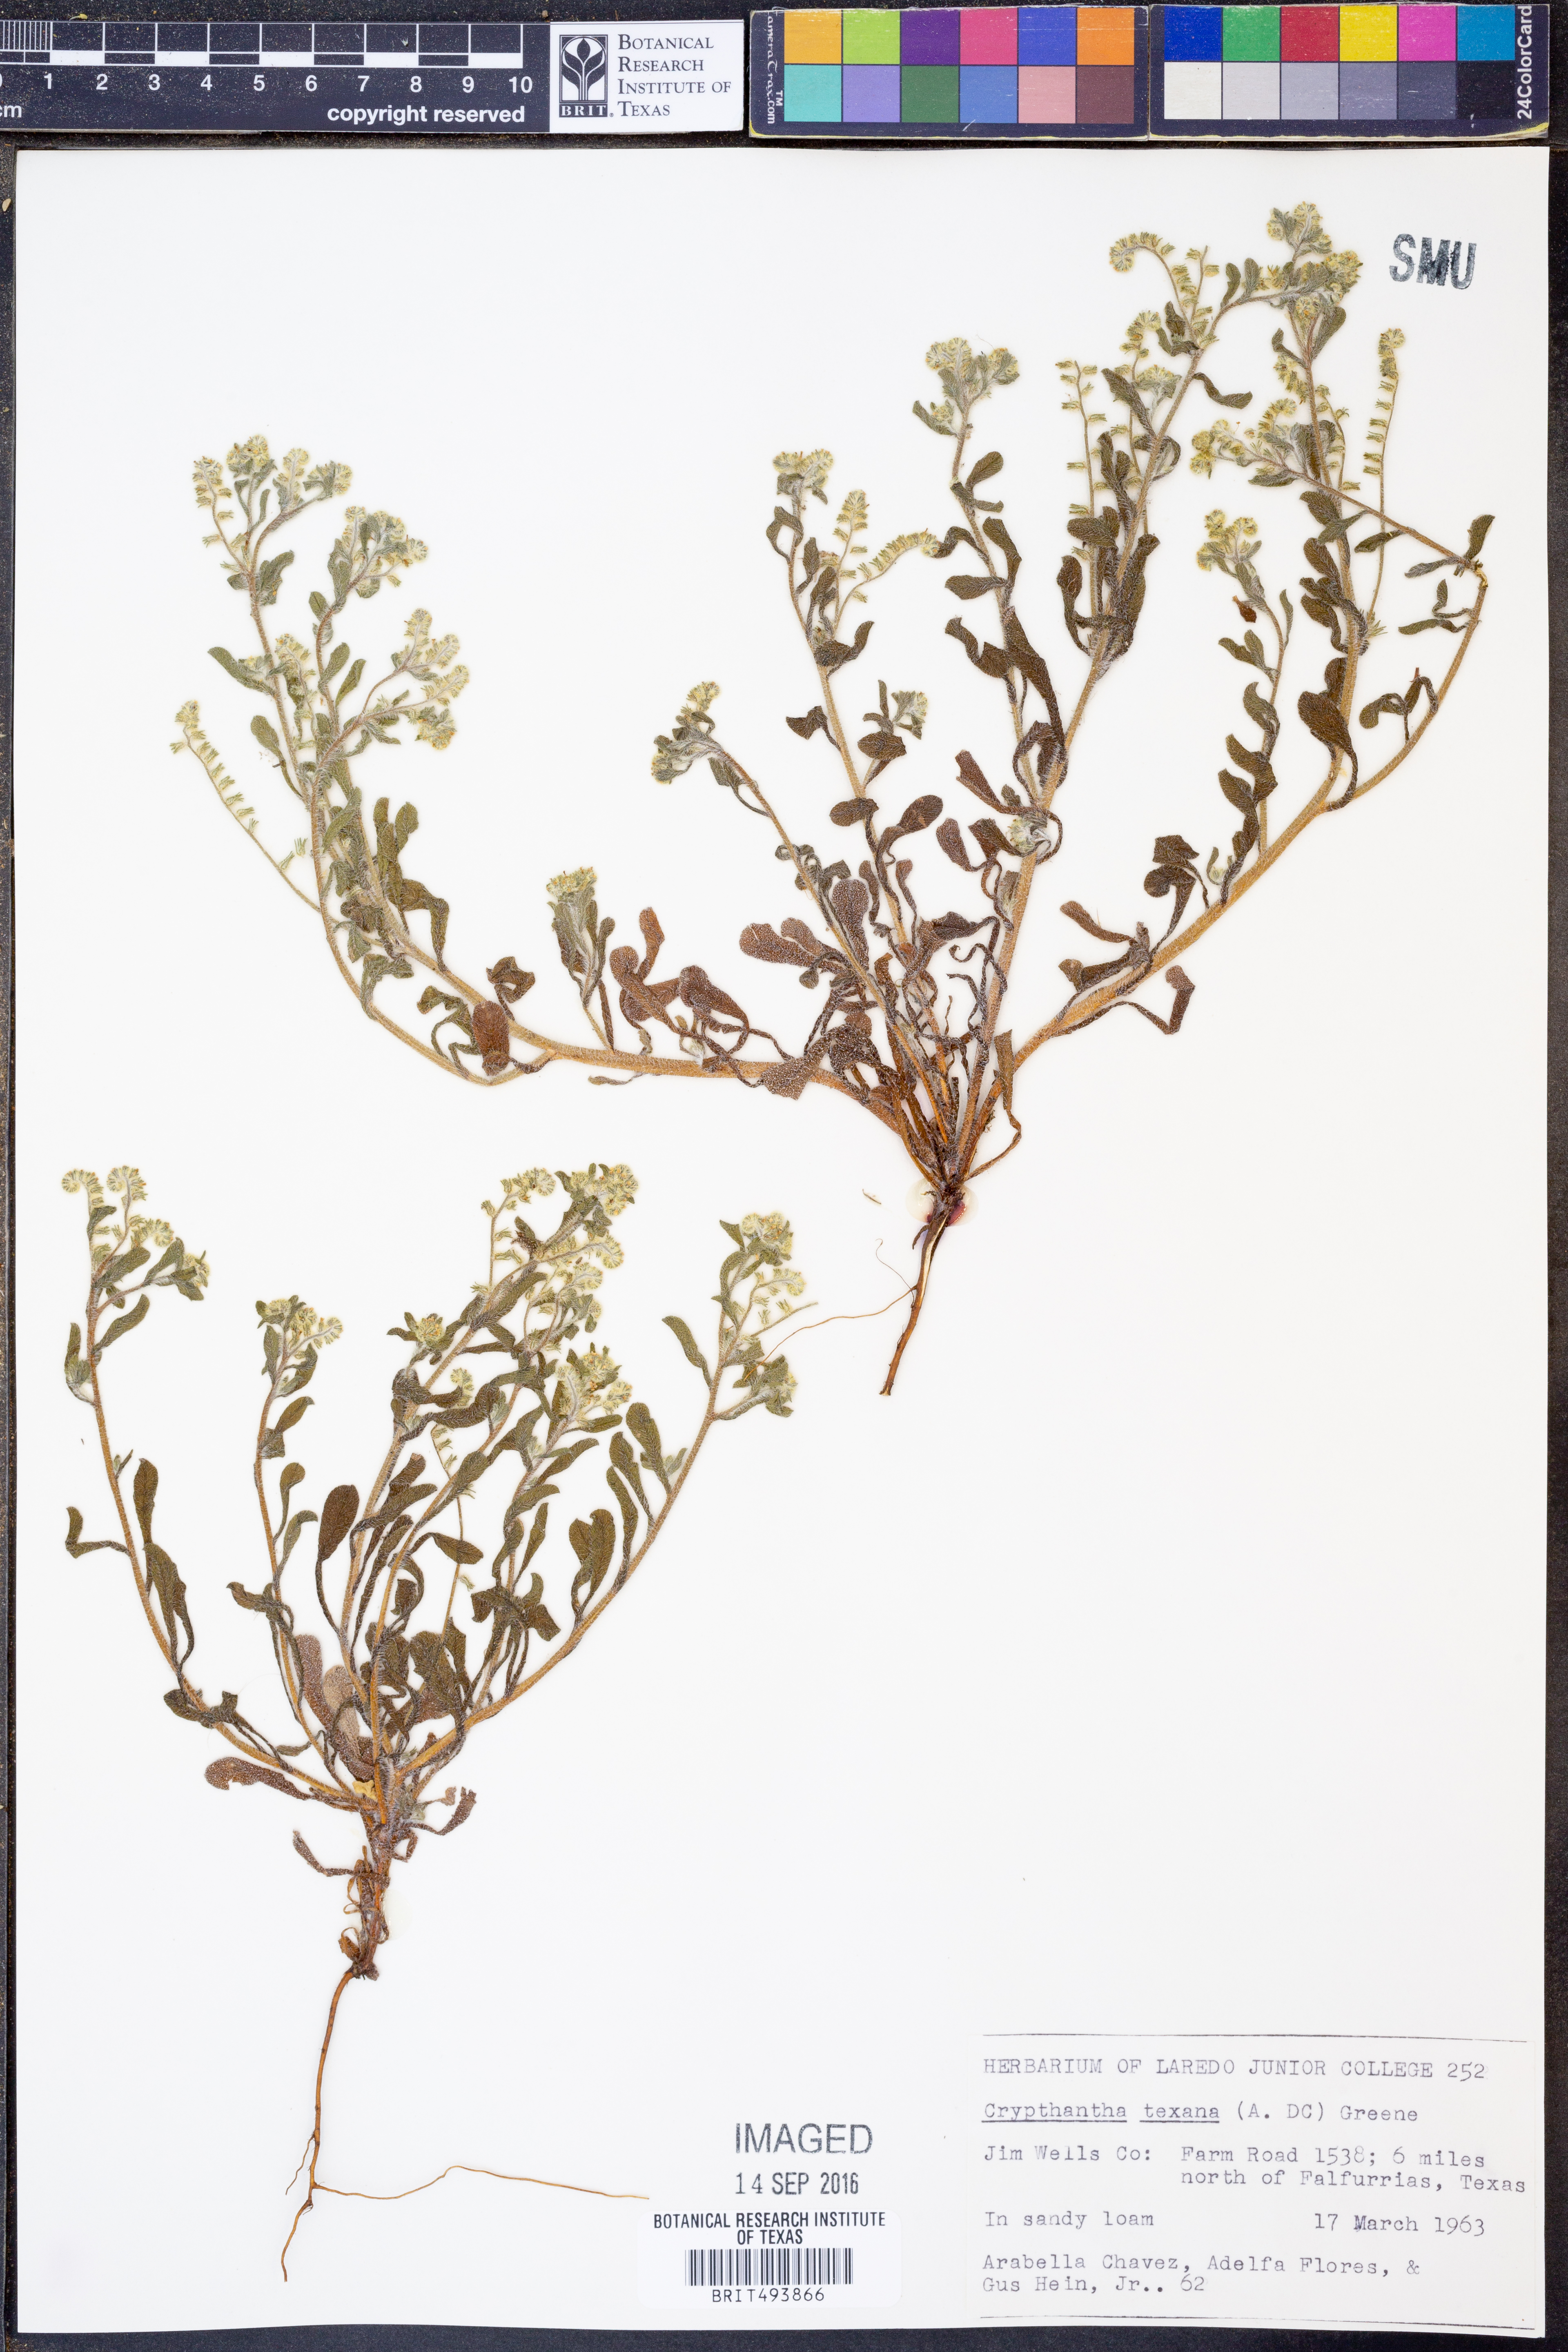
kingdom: Plantae
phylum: Tracheophyta
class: Magnoliopsida
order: Boraginales
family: Boraginaceae
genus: Cryptantha
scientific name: Cryptantha texana
